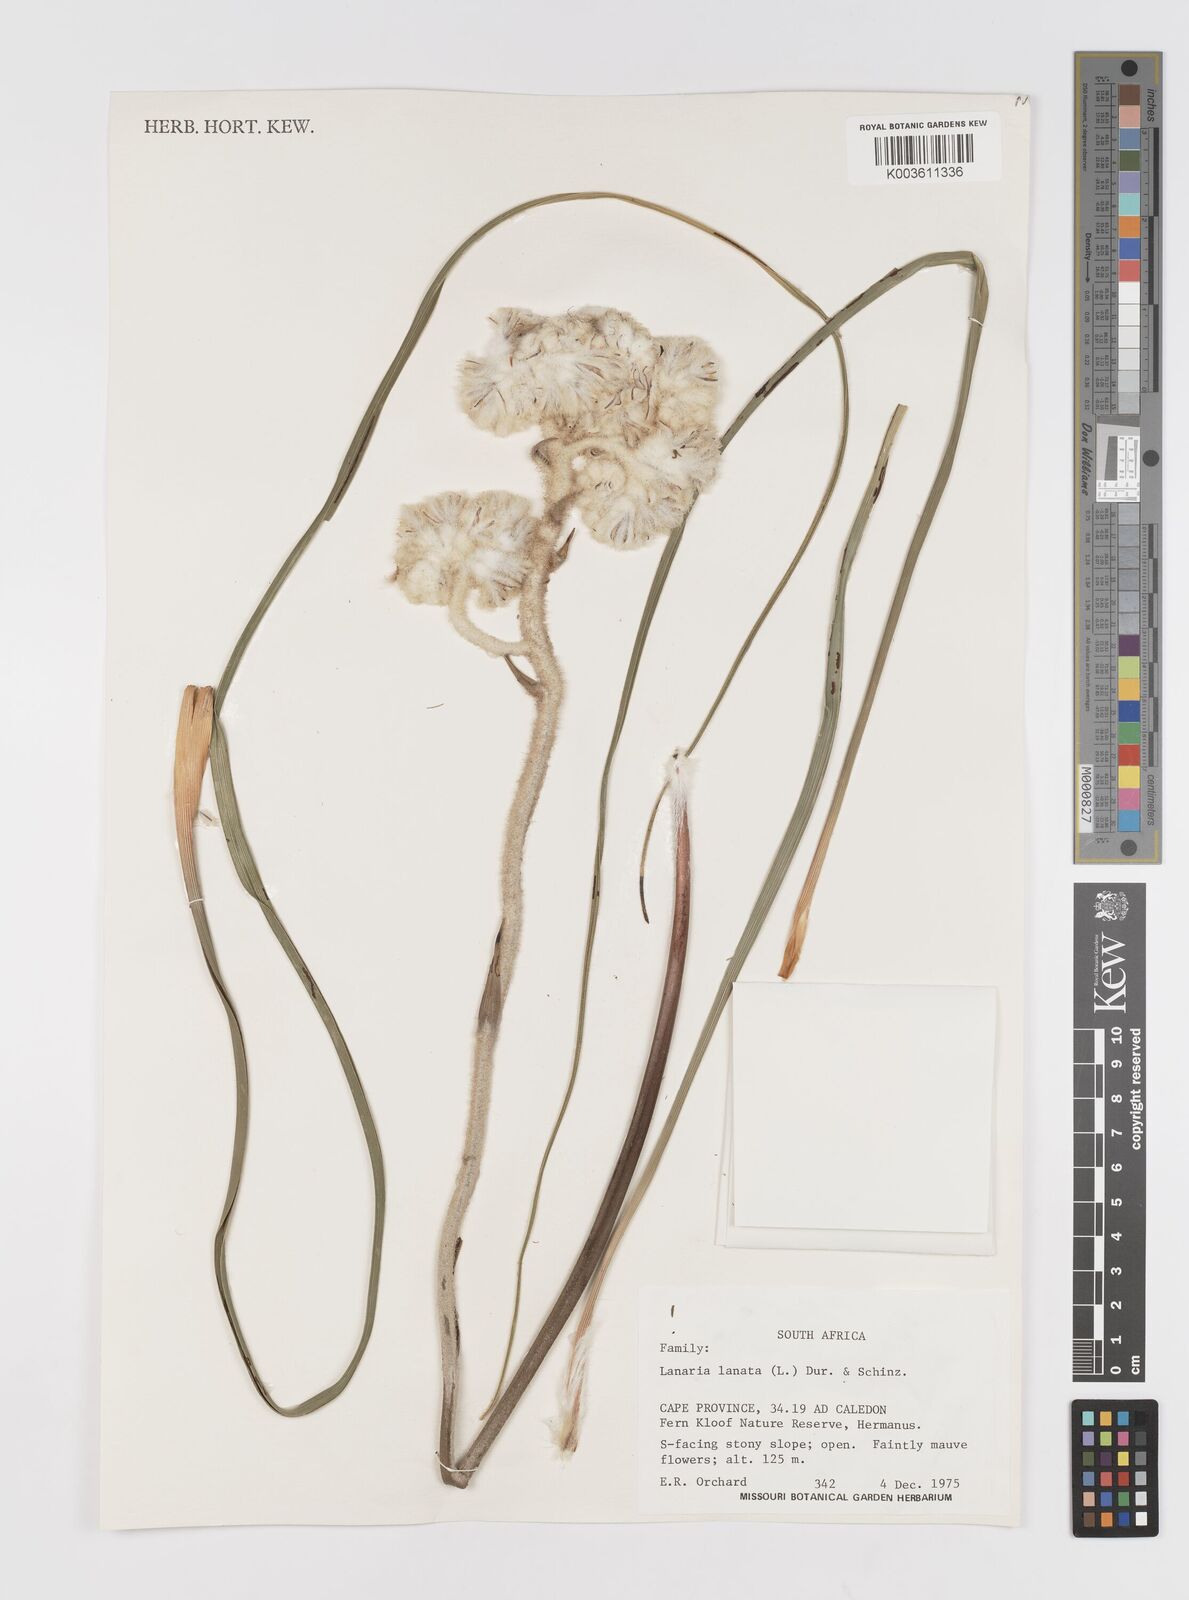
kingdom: Plantae
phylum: Tracheophyta
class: Liliopsida
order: Asparagales
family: Lanariaceae
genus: Lanaria
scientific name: Lanaria
